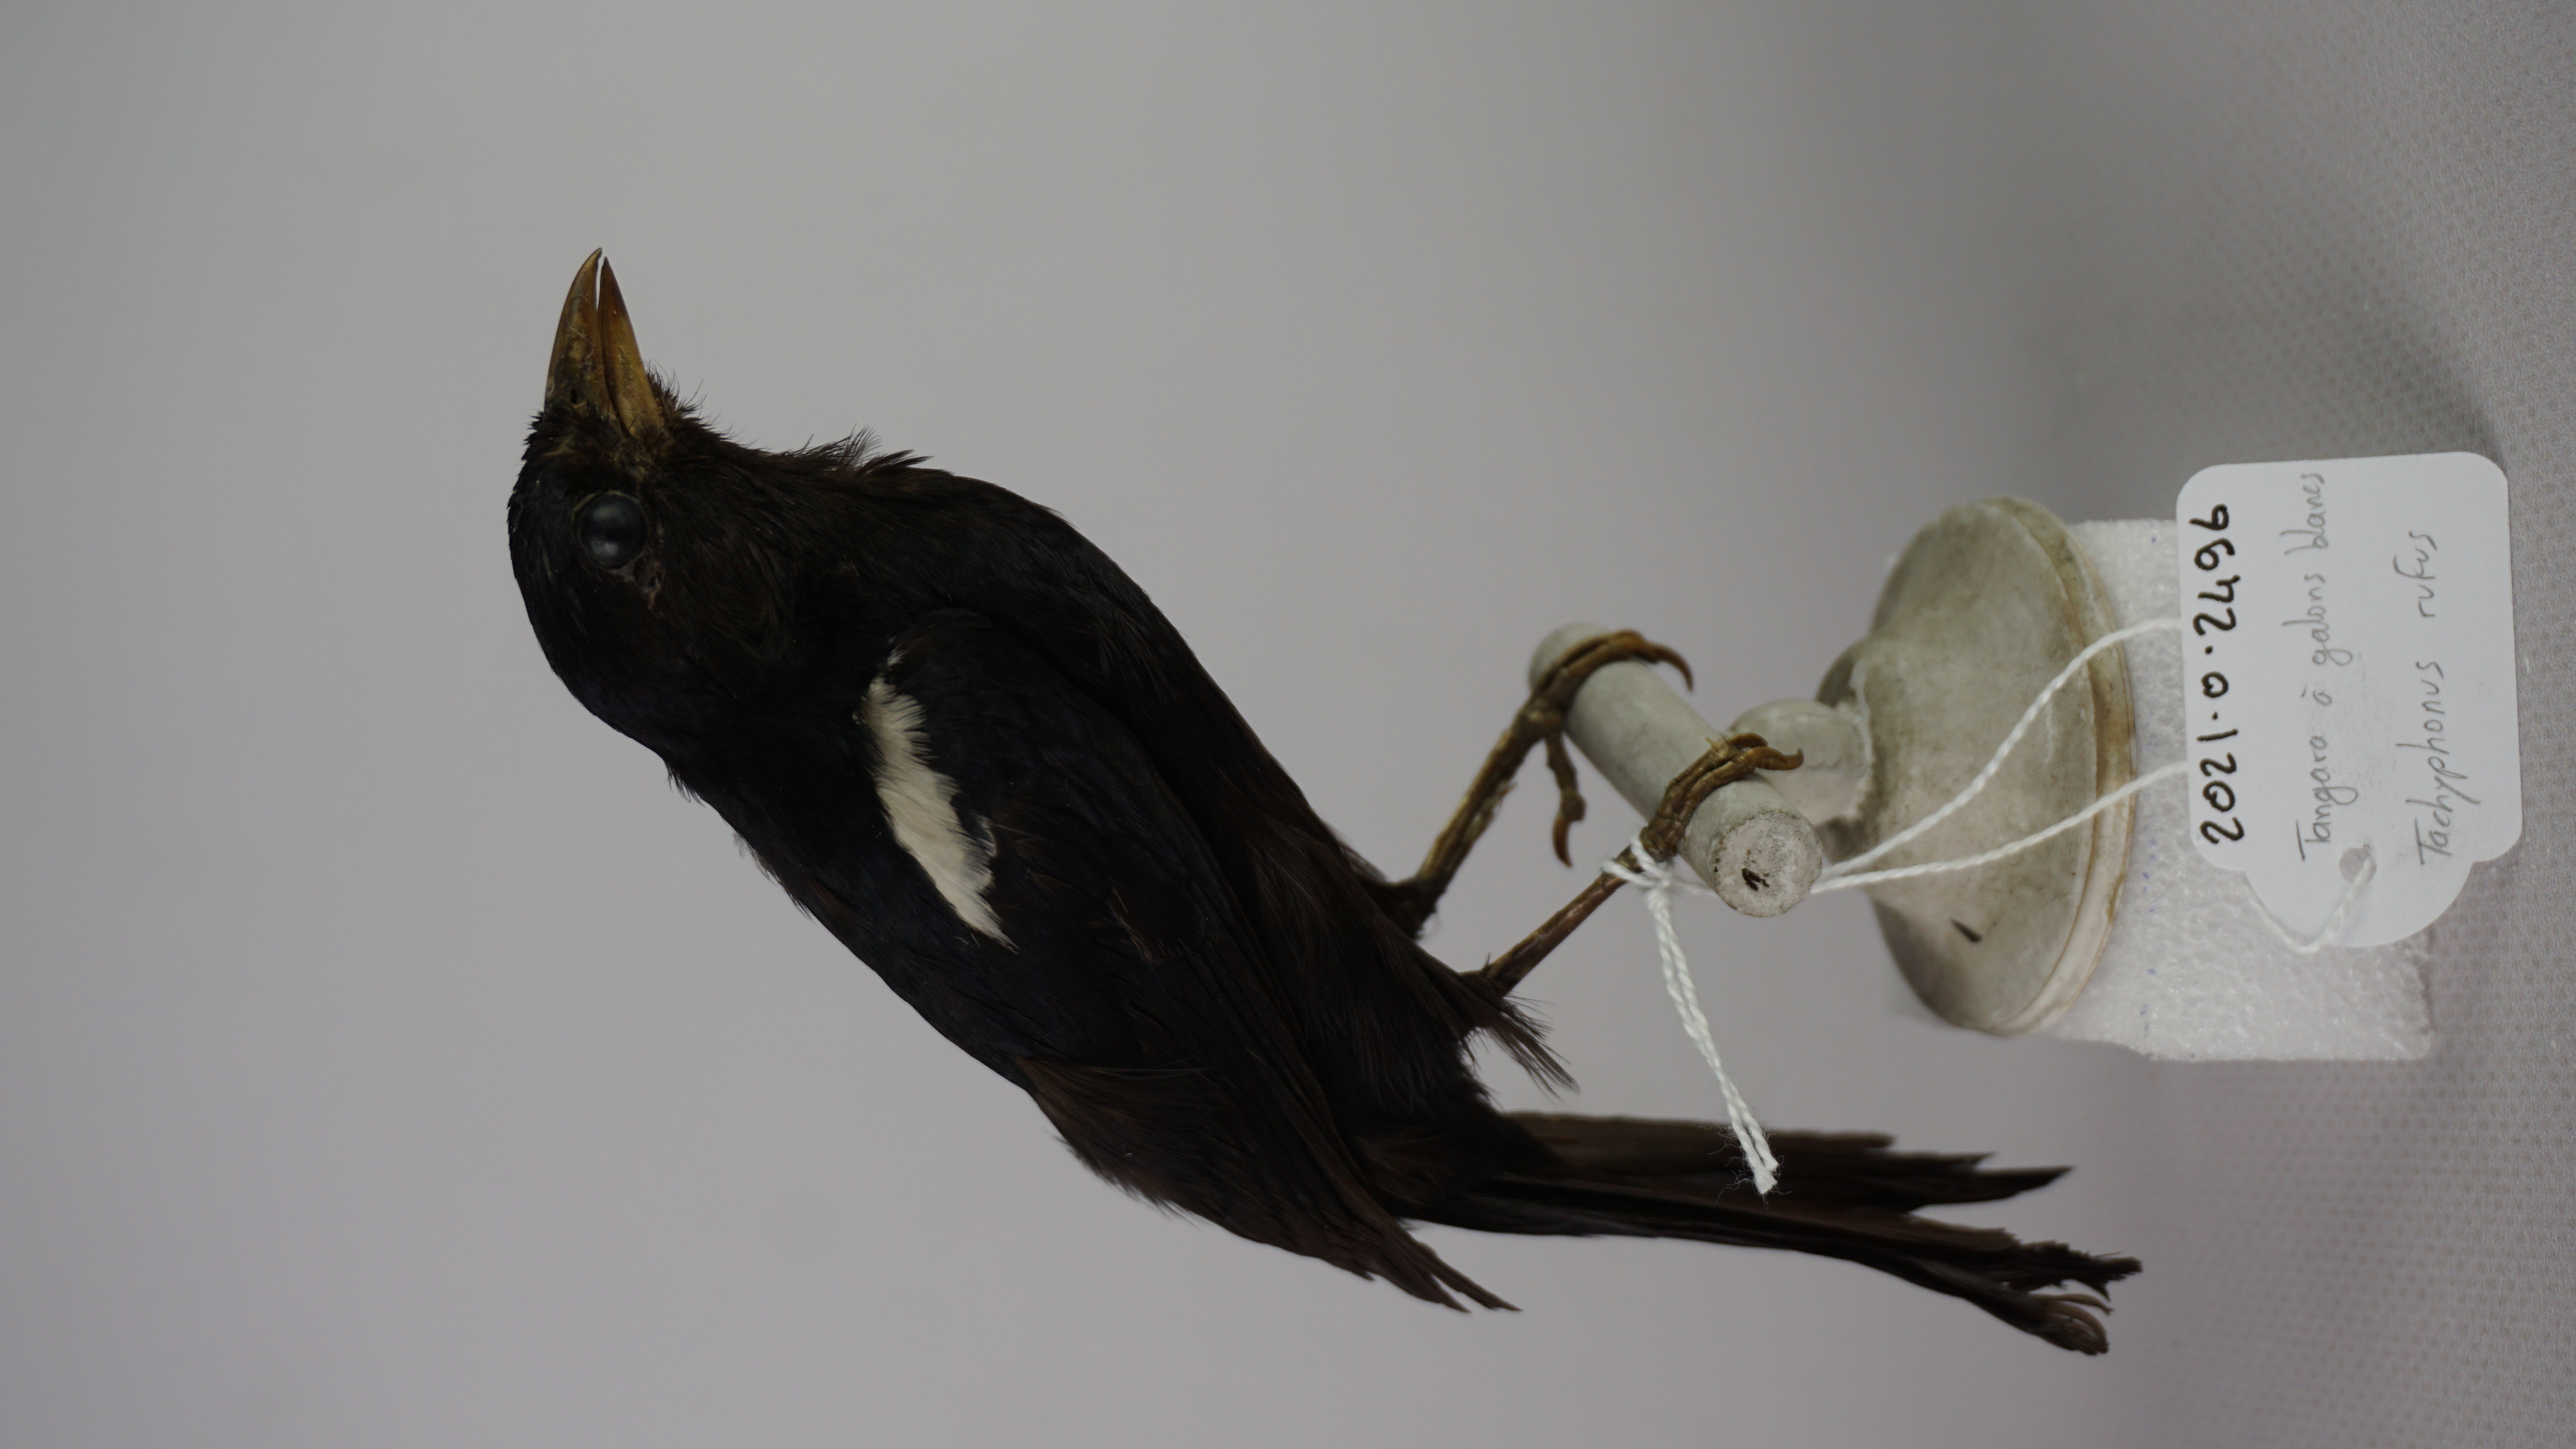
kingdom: Animalia
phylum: Chordata
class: Aves
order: Passeriformes
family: Thraupidae
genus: Tachyphonus
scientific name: Tachyphonus rufus
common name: White-lined tanager
